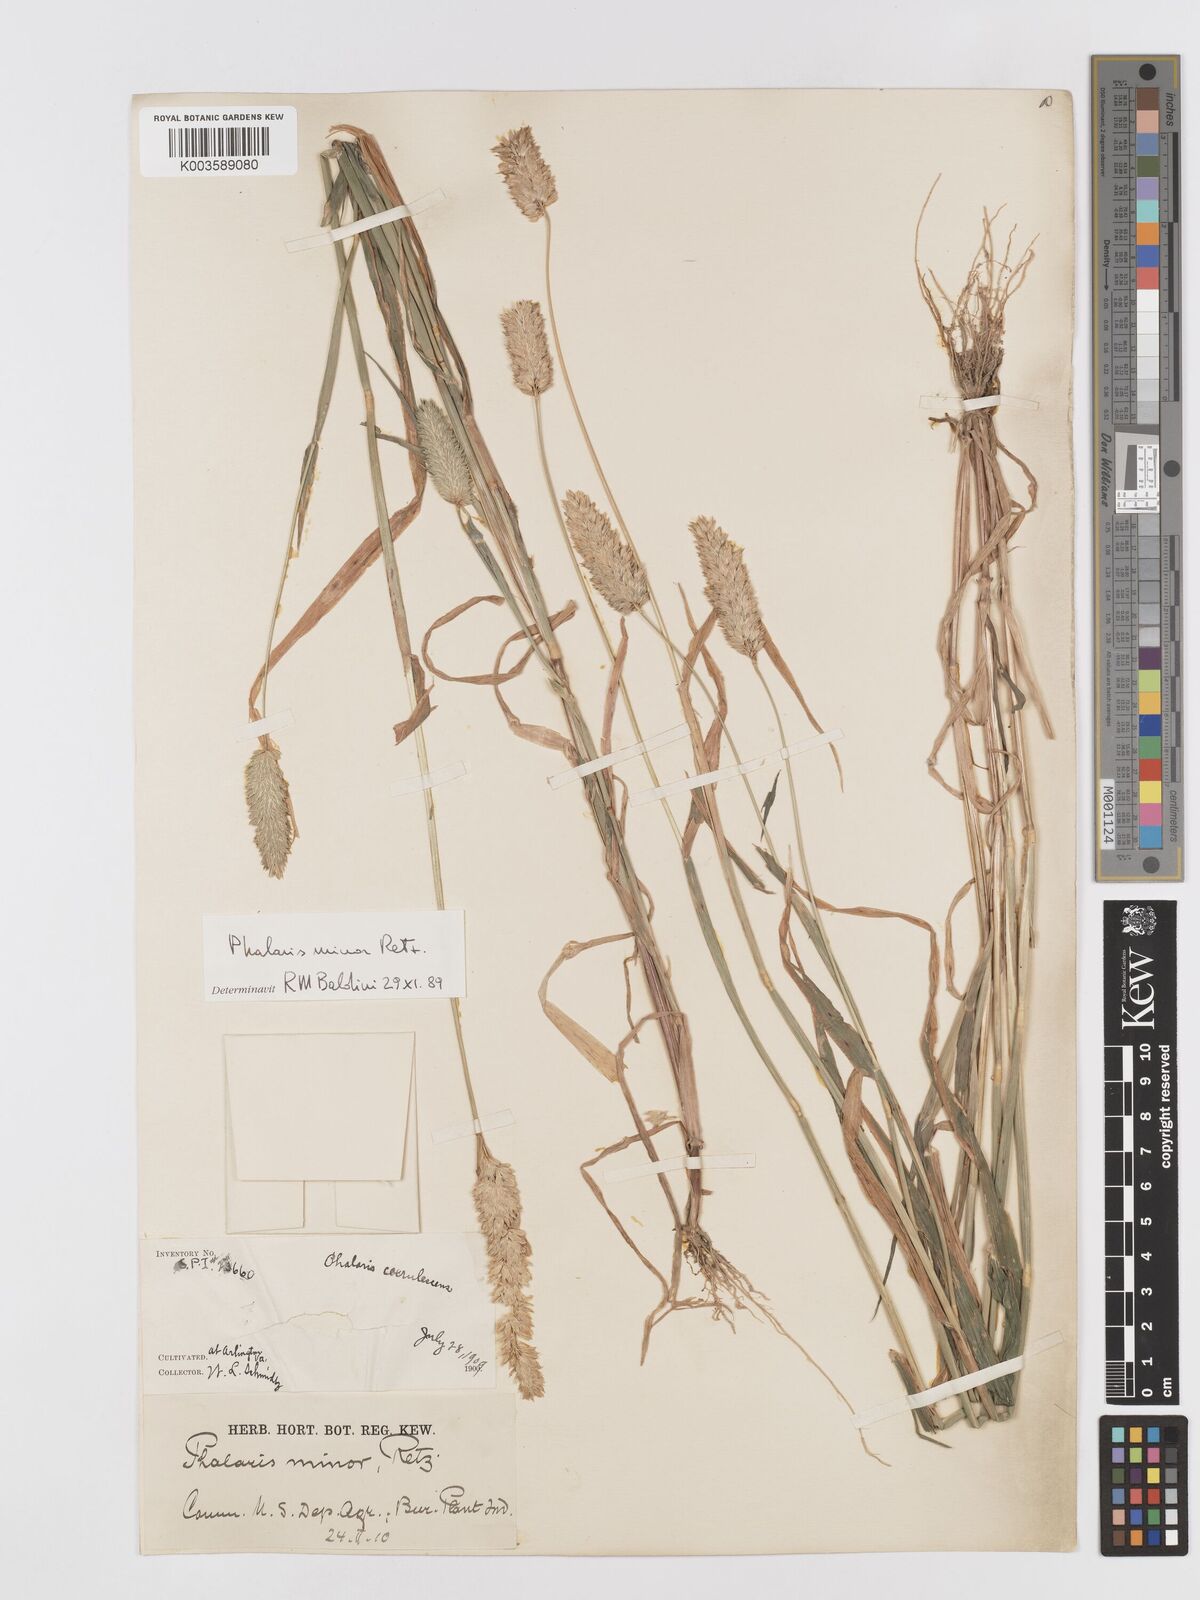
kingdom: Plantae
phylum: Tracheophyta
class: Liliopsida
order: Poales
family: Poaceae
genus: Phalaris
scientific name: Phalaris minor
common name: Littleseed canarygrass
